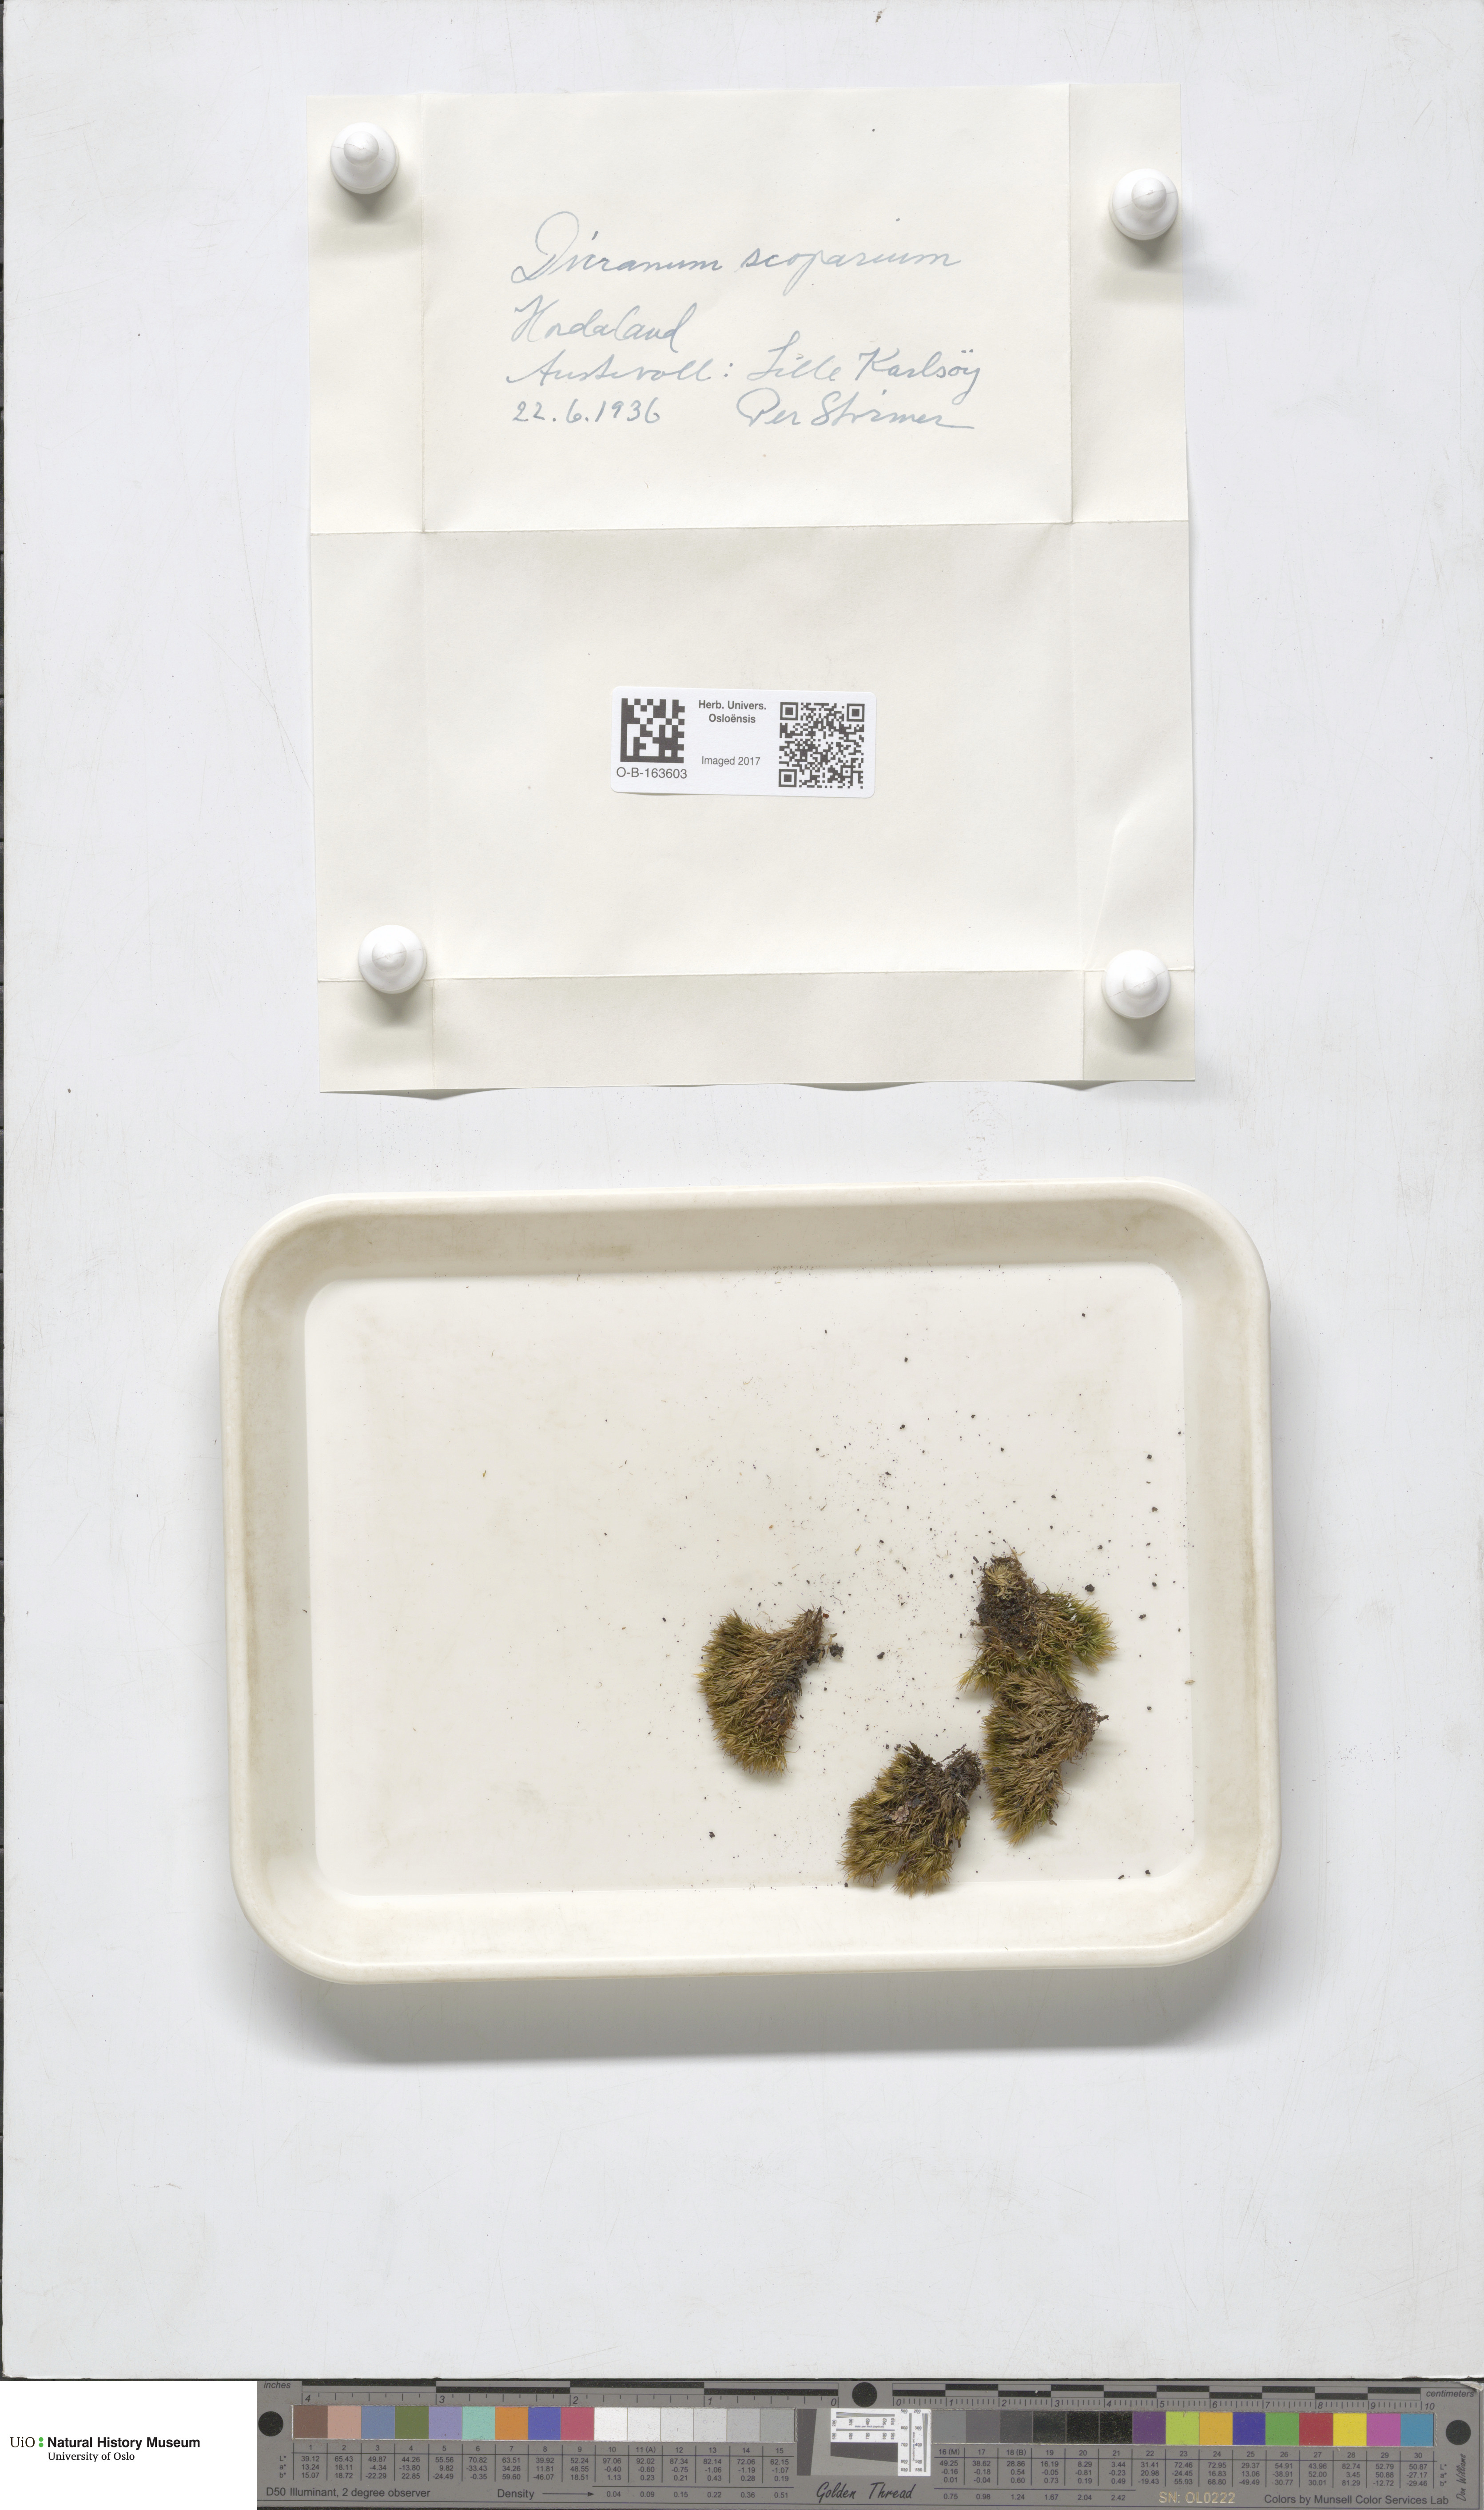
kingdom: Plantae
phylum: Bryophyta
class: Bryopsida
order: Dicranales
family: Dicranaceae
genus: Dicranum
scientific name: Dicranum scoparium
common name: Broom fork-moss
